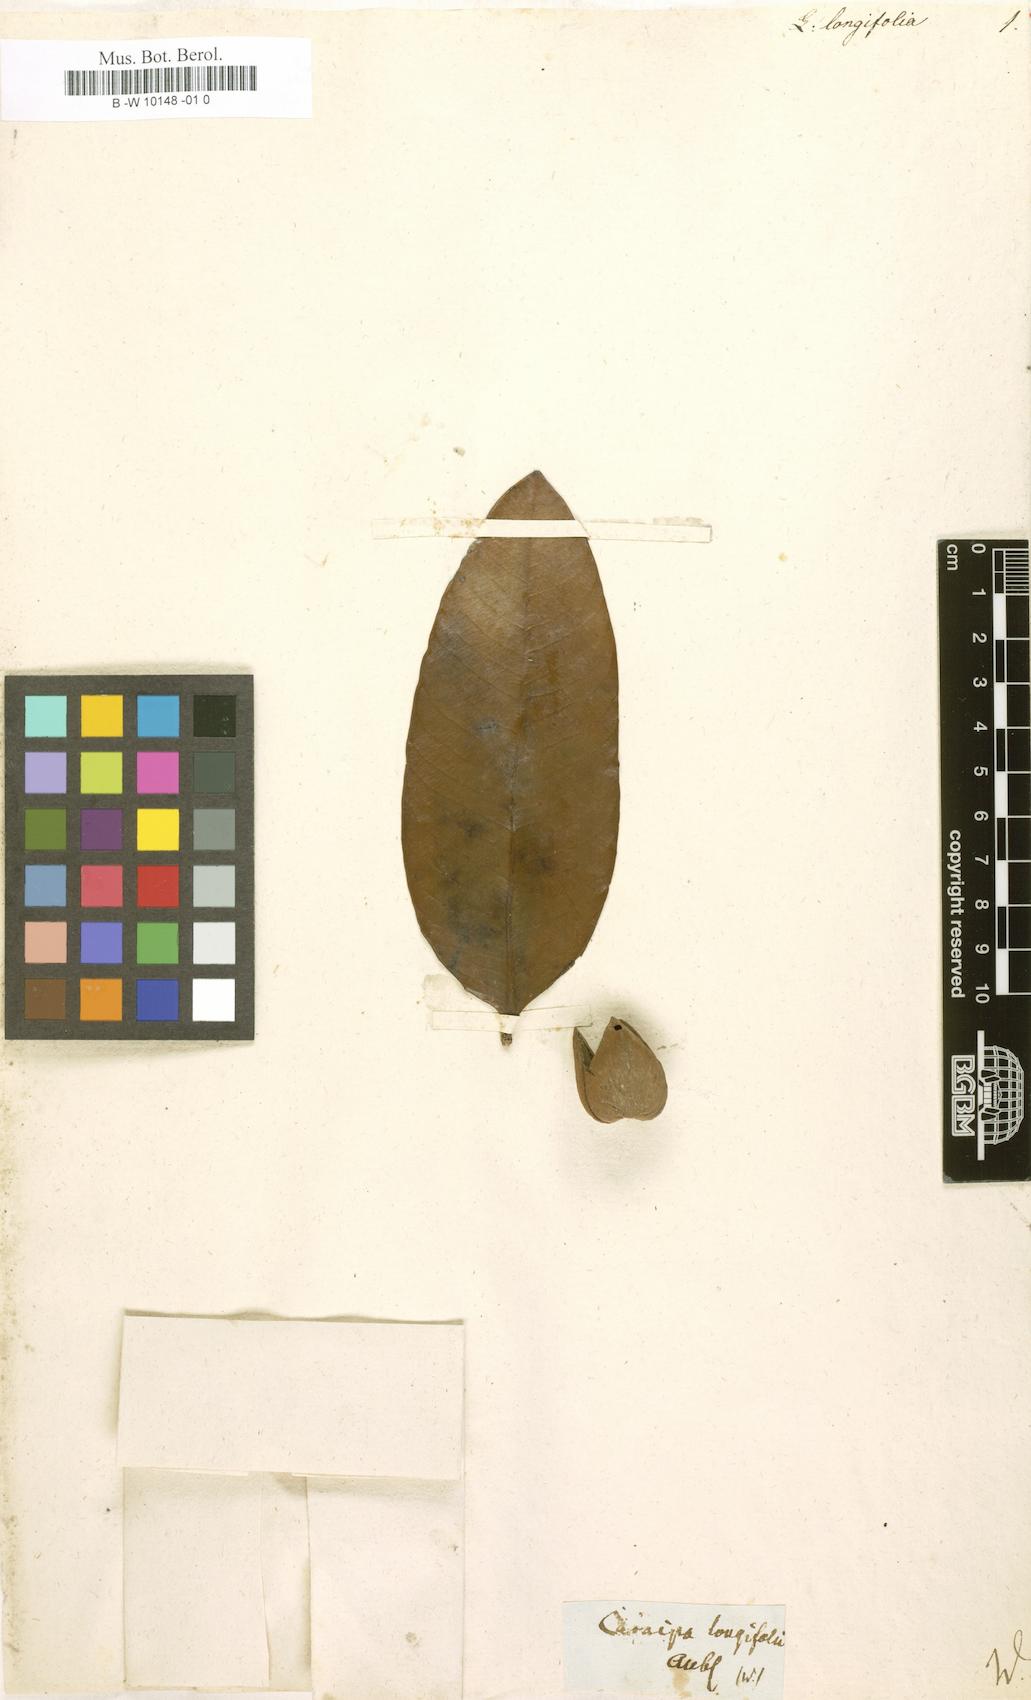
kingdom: Plantae
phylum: Tracheophyta
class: Magnoliopsida
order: Malpighiales
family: Rhizophoraceae
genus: Cassipourea
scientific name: Cassipourea
